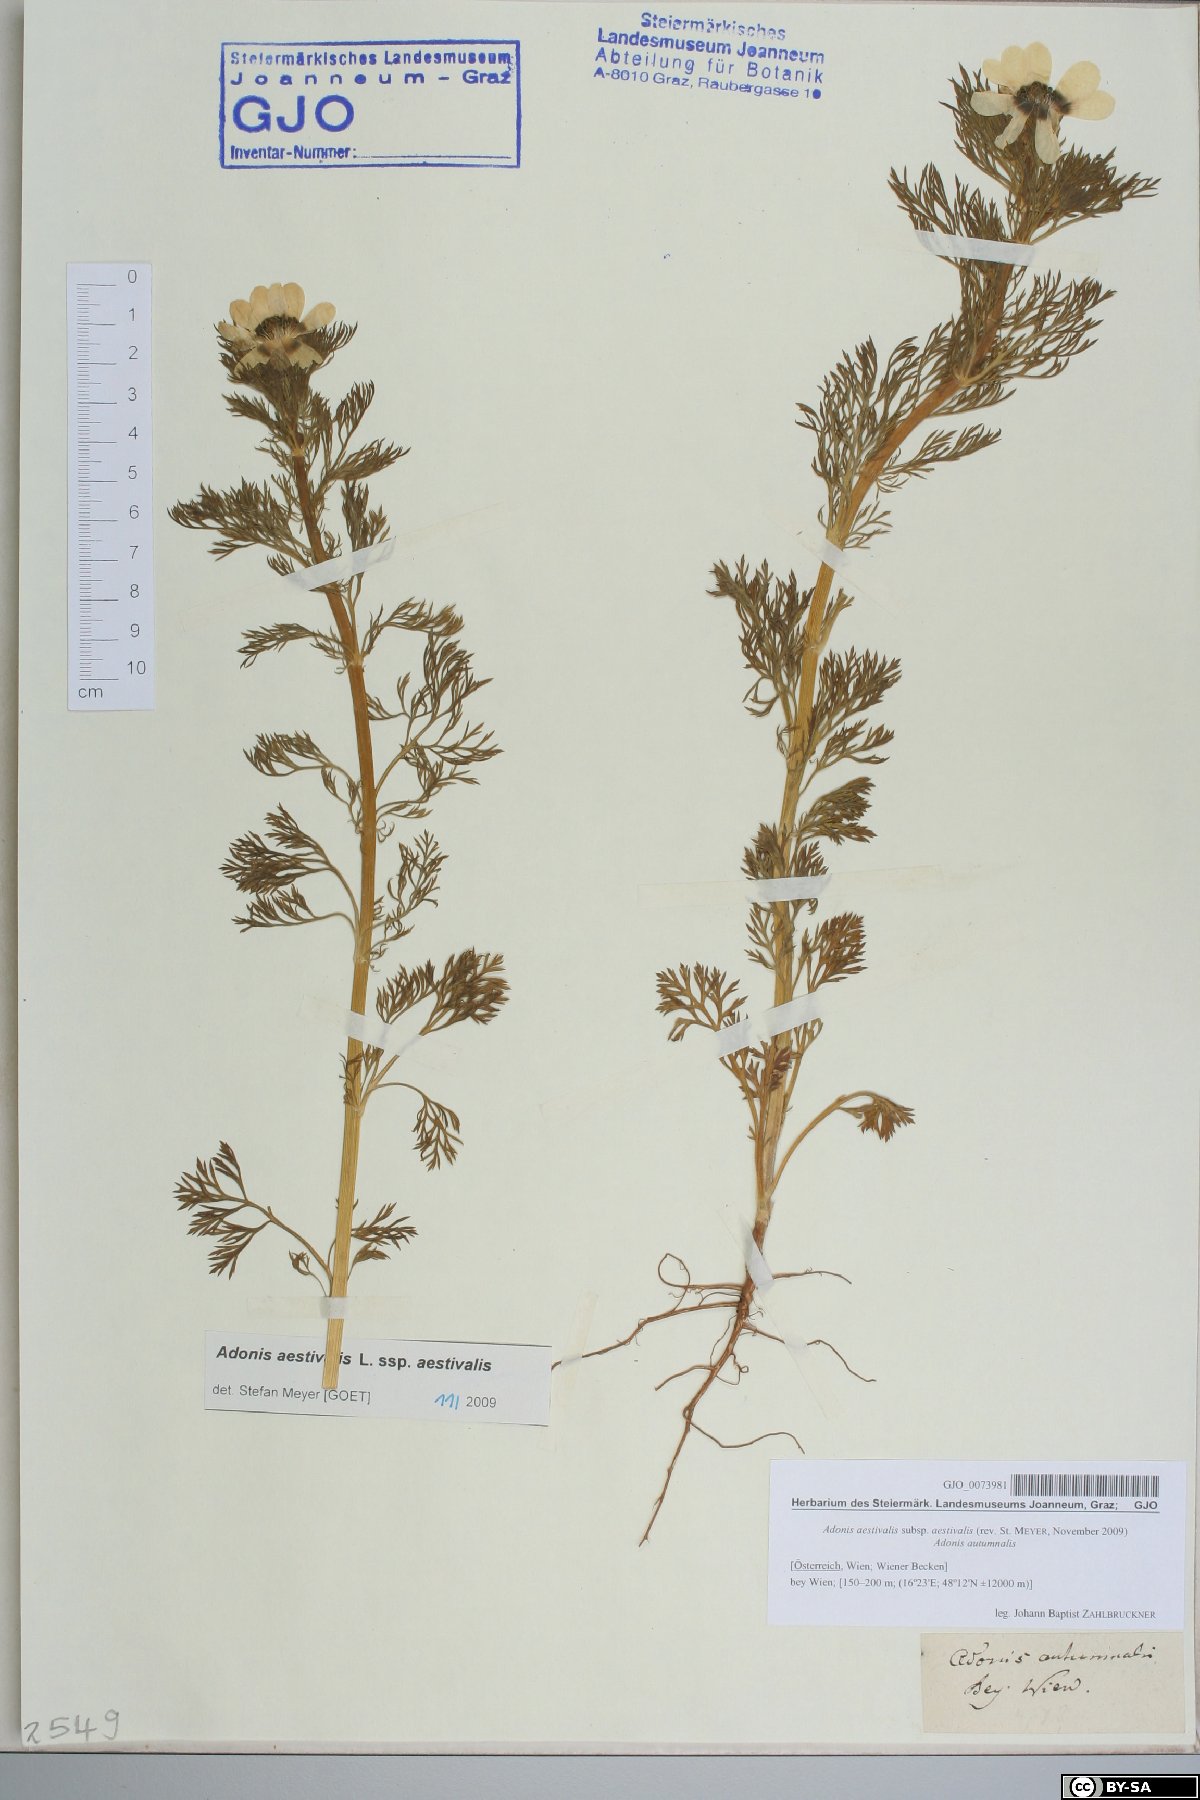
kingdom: Plantae
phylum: Tracheophyta
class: Magnoliopsida
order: Ranunculales
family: Ranunculaceae
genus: Adonis
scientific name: Adonis aestivalis
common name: Summer pheasant's-eye
